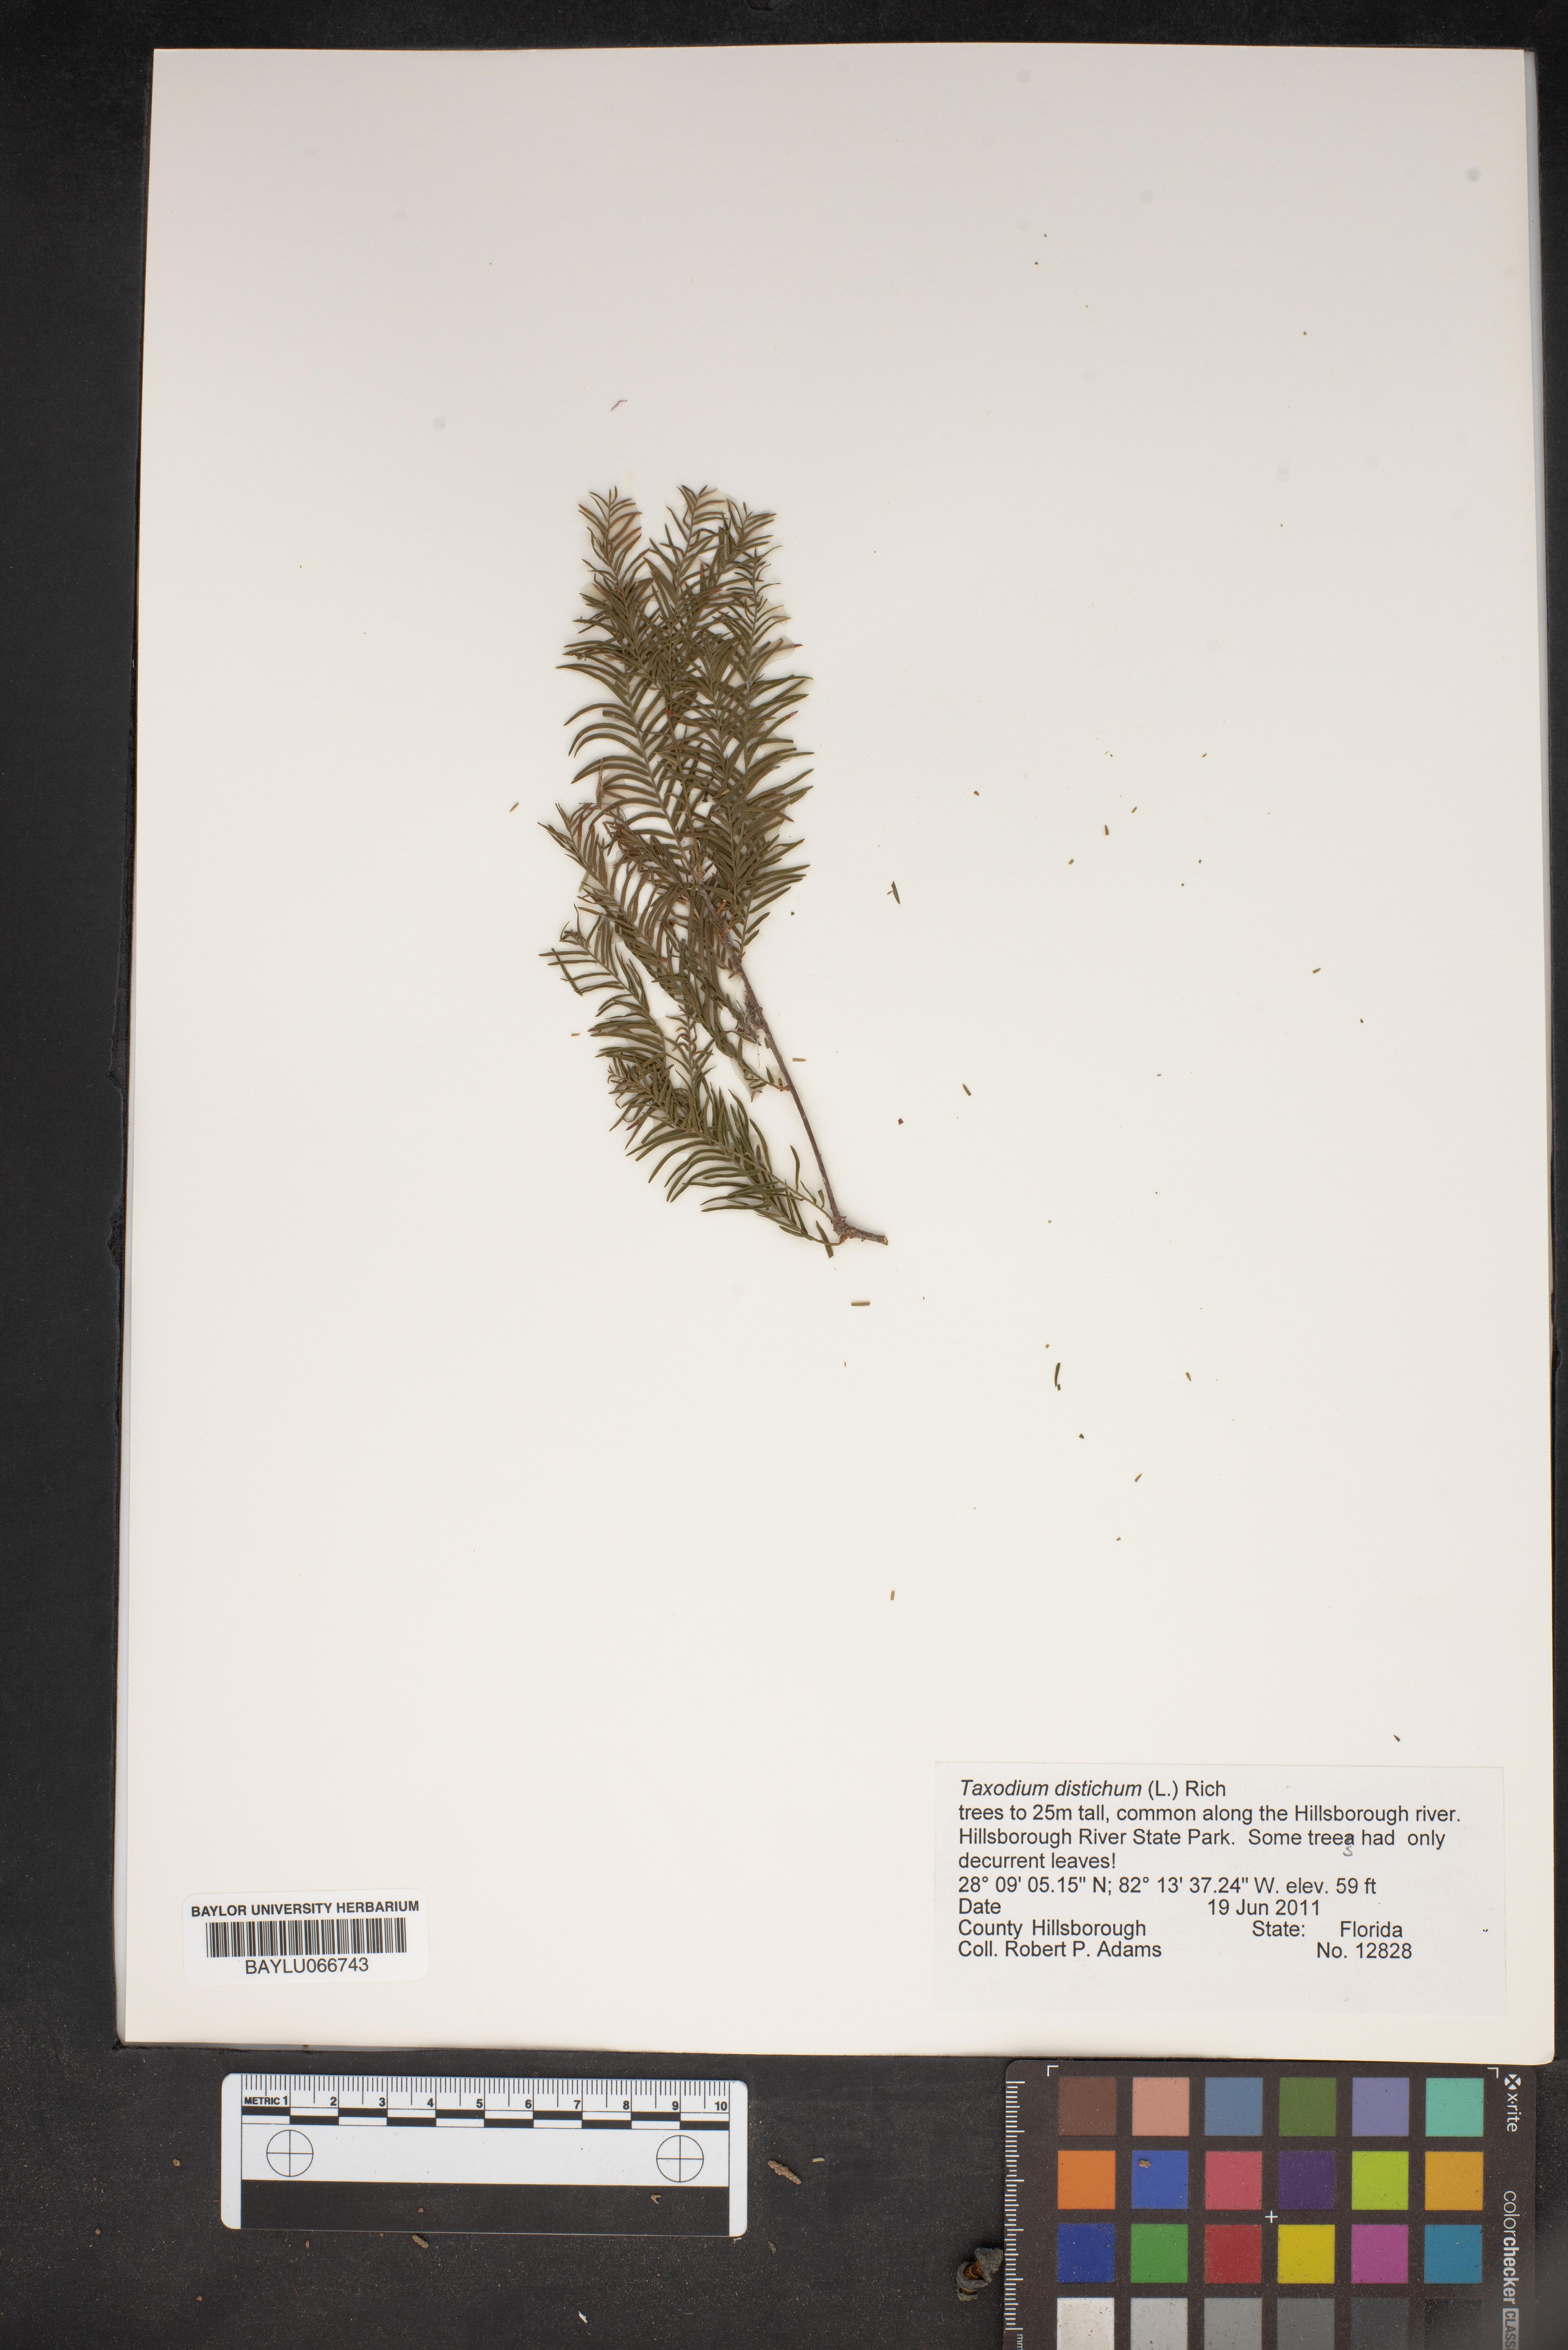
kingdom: Plantae
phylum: Tracheophyta
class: Pinopsida
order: Pinales
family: Cupressaceae
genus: Taxodium
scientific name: Taxodium distichum
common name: Bald cypress
